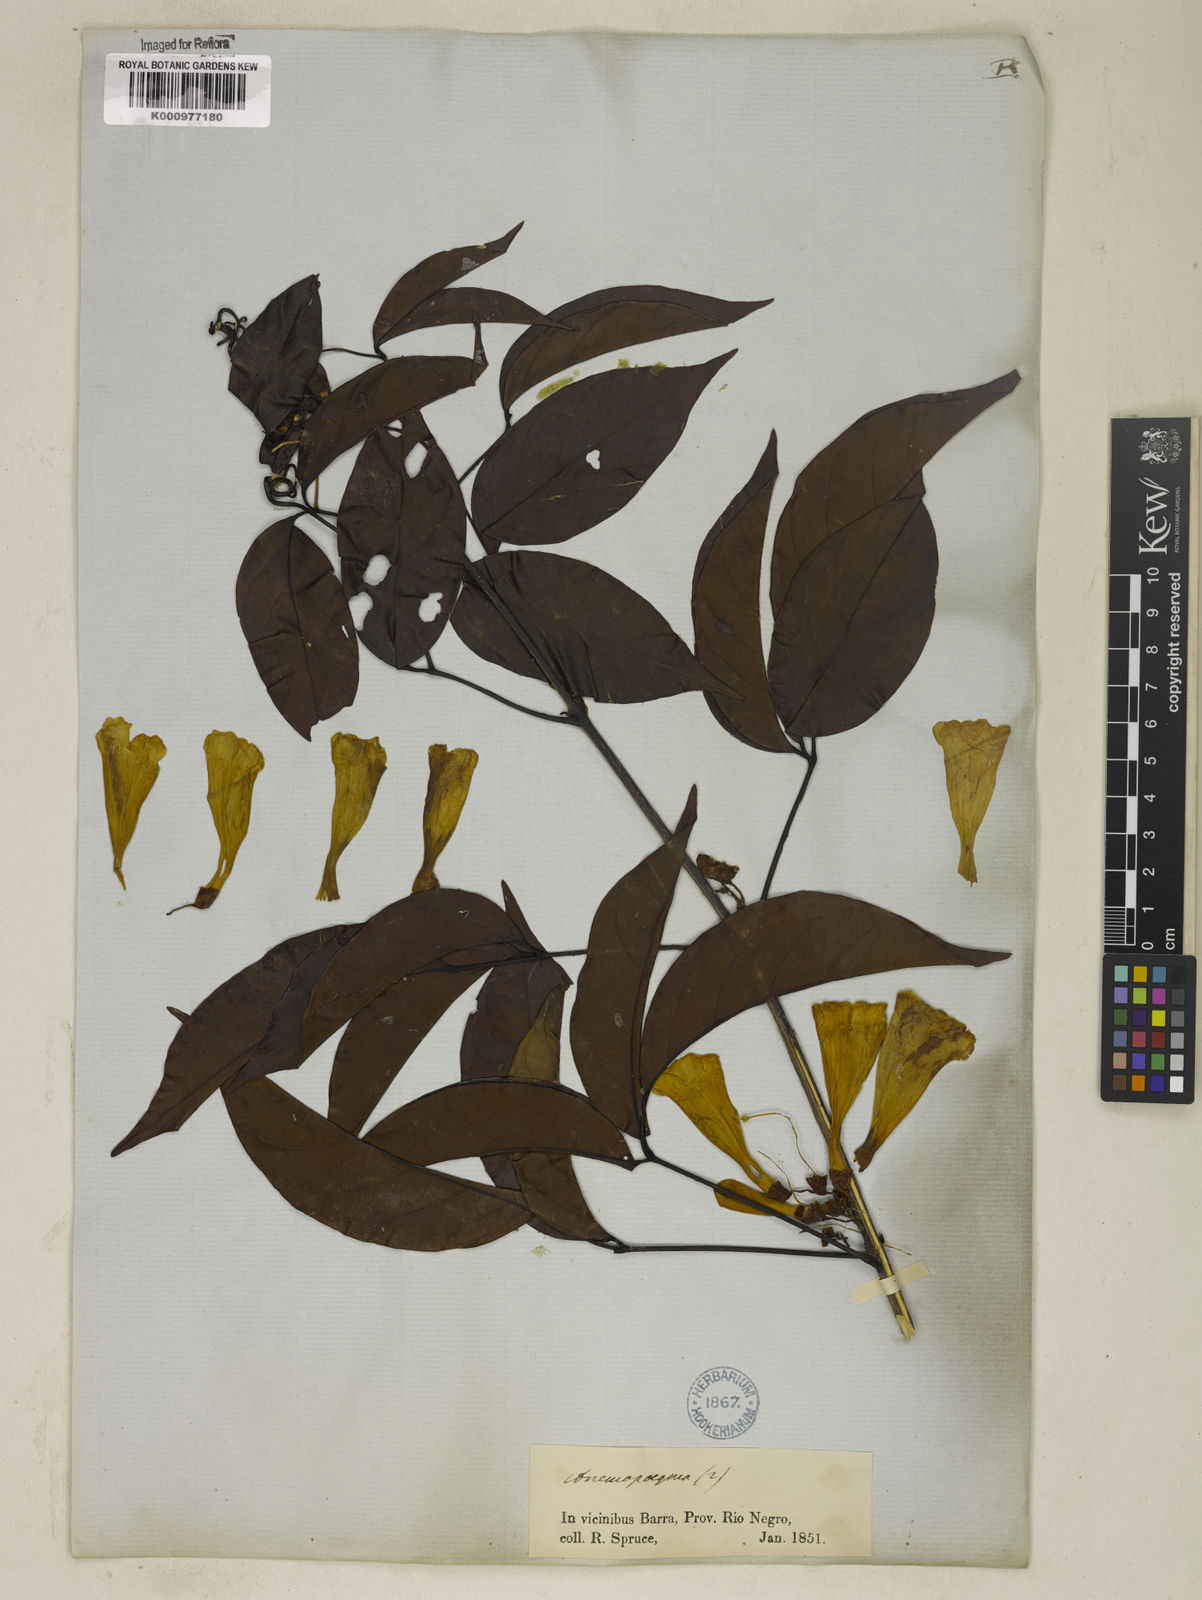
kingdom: Plantae
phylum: Tracheophyta
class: Magnoliopsida
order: Lamiales
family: Bignoniaceae
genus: Anemopaegma
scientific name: Anemopaegma floridum
